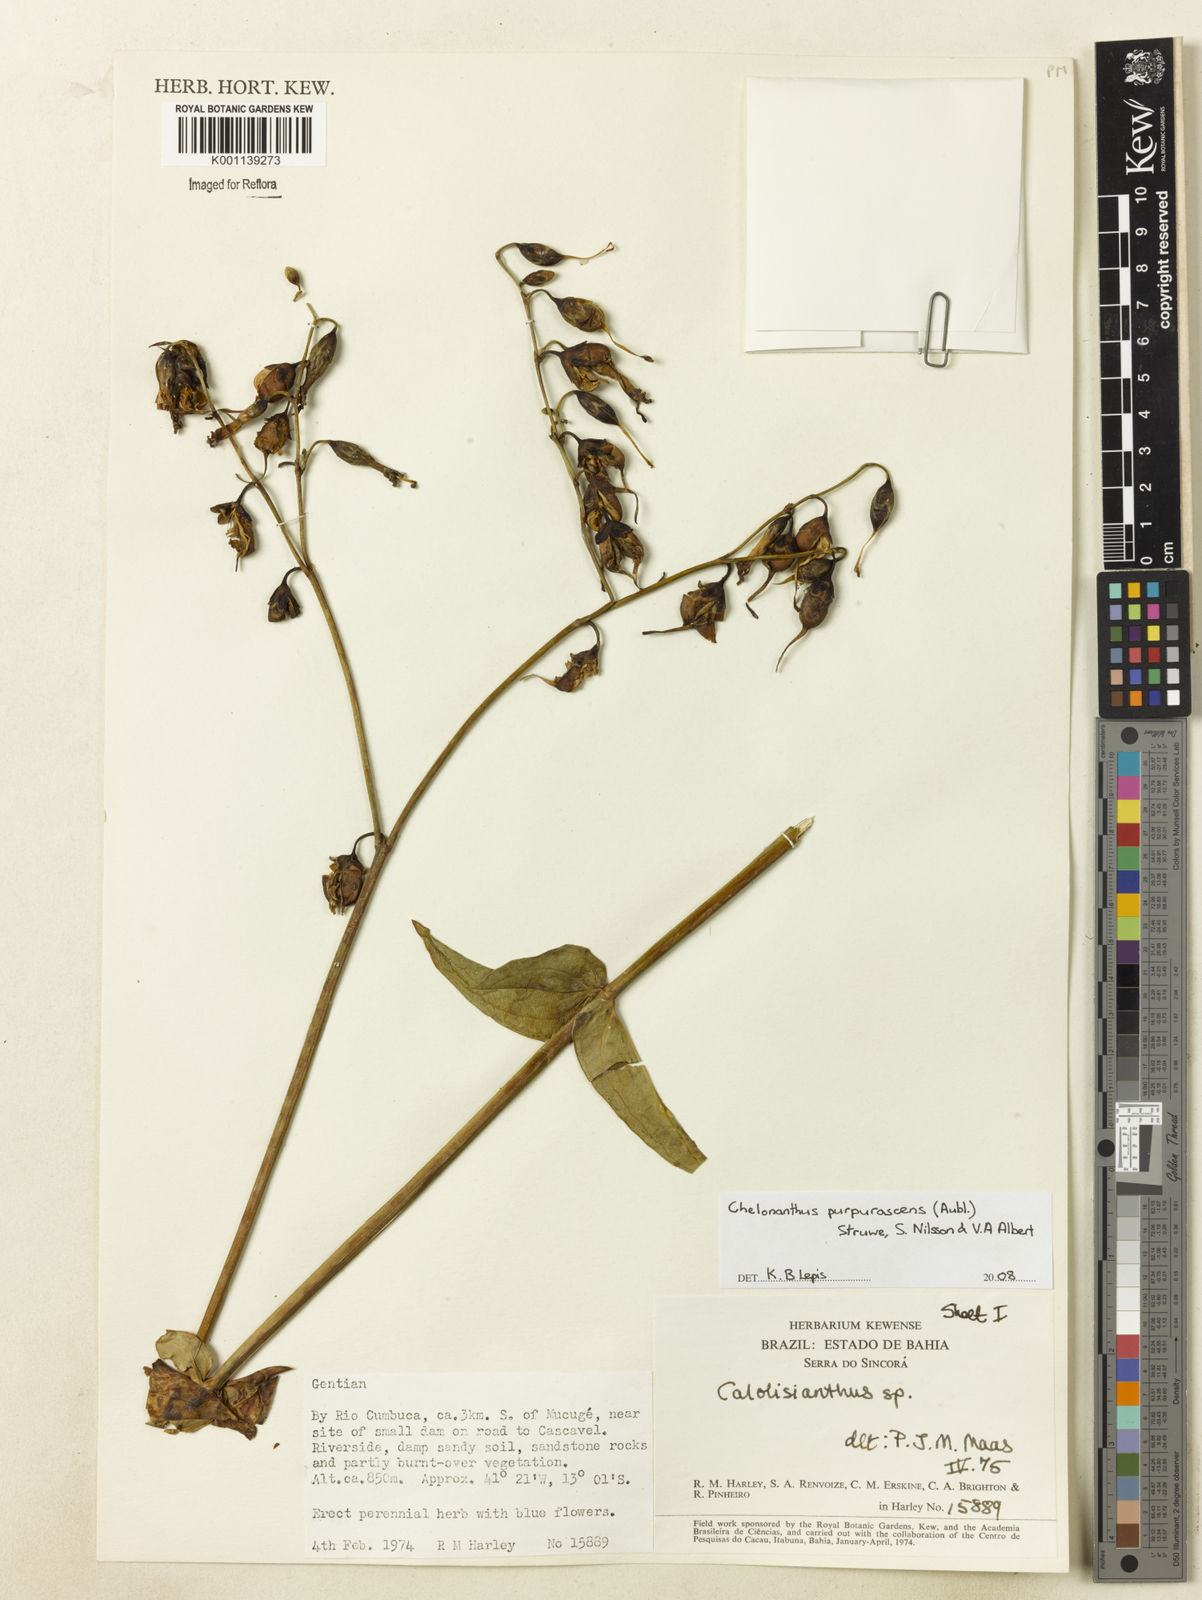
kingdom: Plantae
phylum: Tracheophyta
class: Magnoliopsida
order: Gentianales
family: Gentianaceae
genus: Chelonanthus
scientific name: Chelonanthus purpurascens
